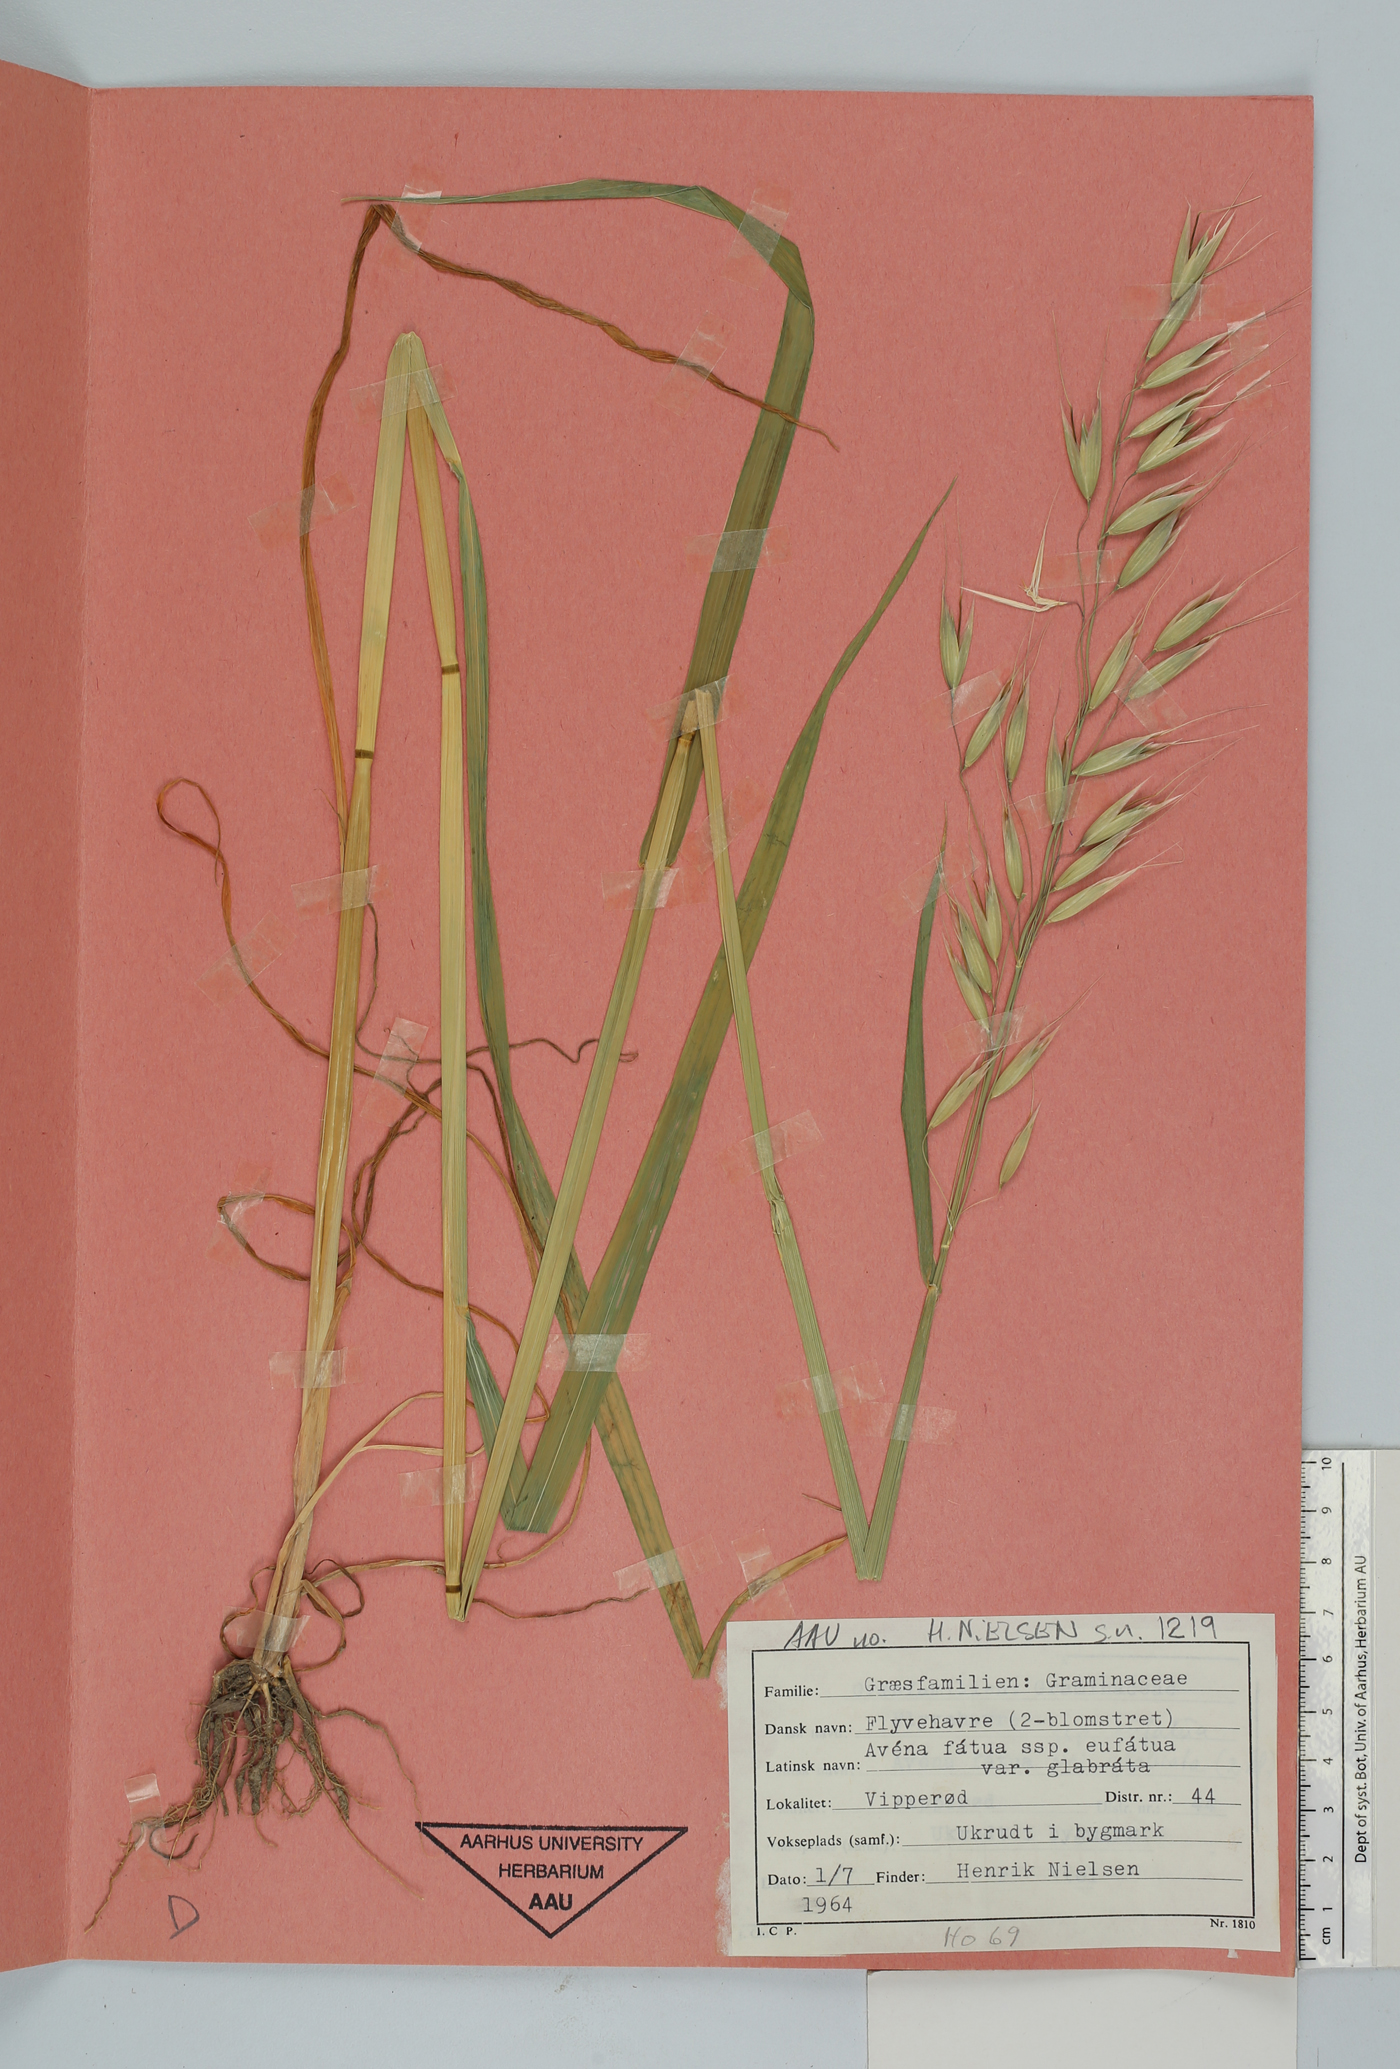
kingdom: Plantae
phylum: Tracheophyta
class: Liliopsida
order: Poales
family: Poaceae
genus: Avena
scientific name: Avena fatua
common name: Wild oat
